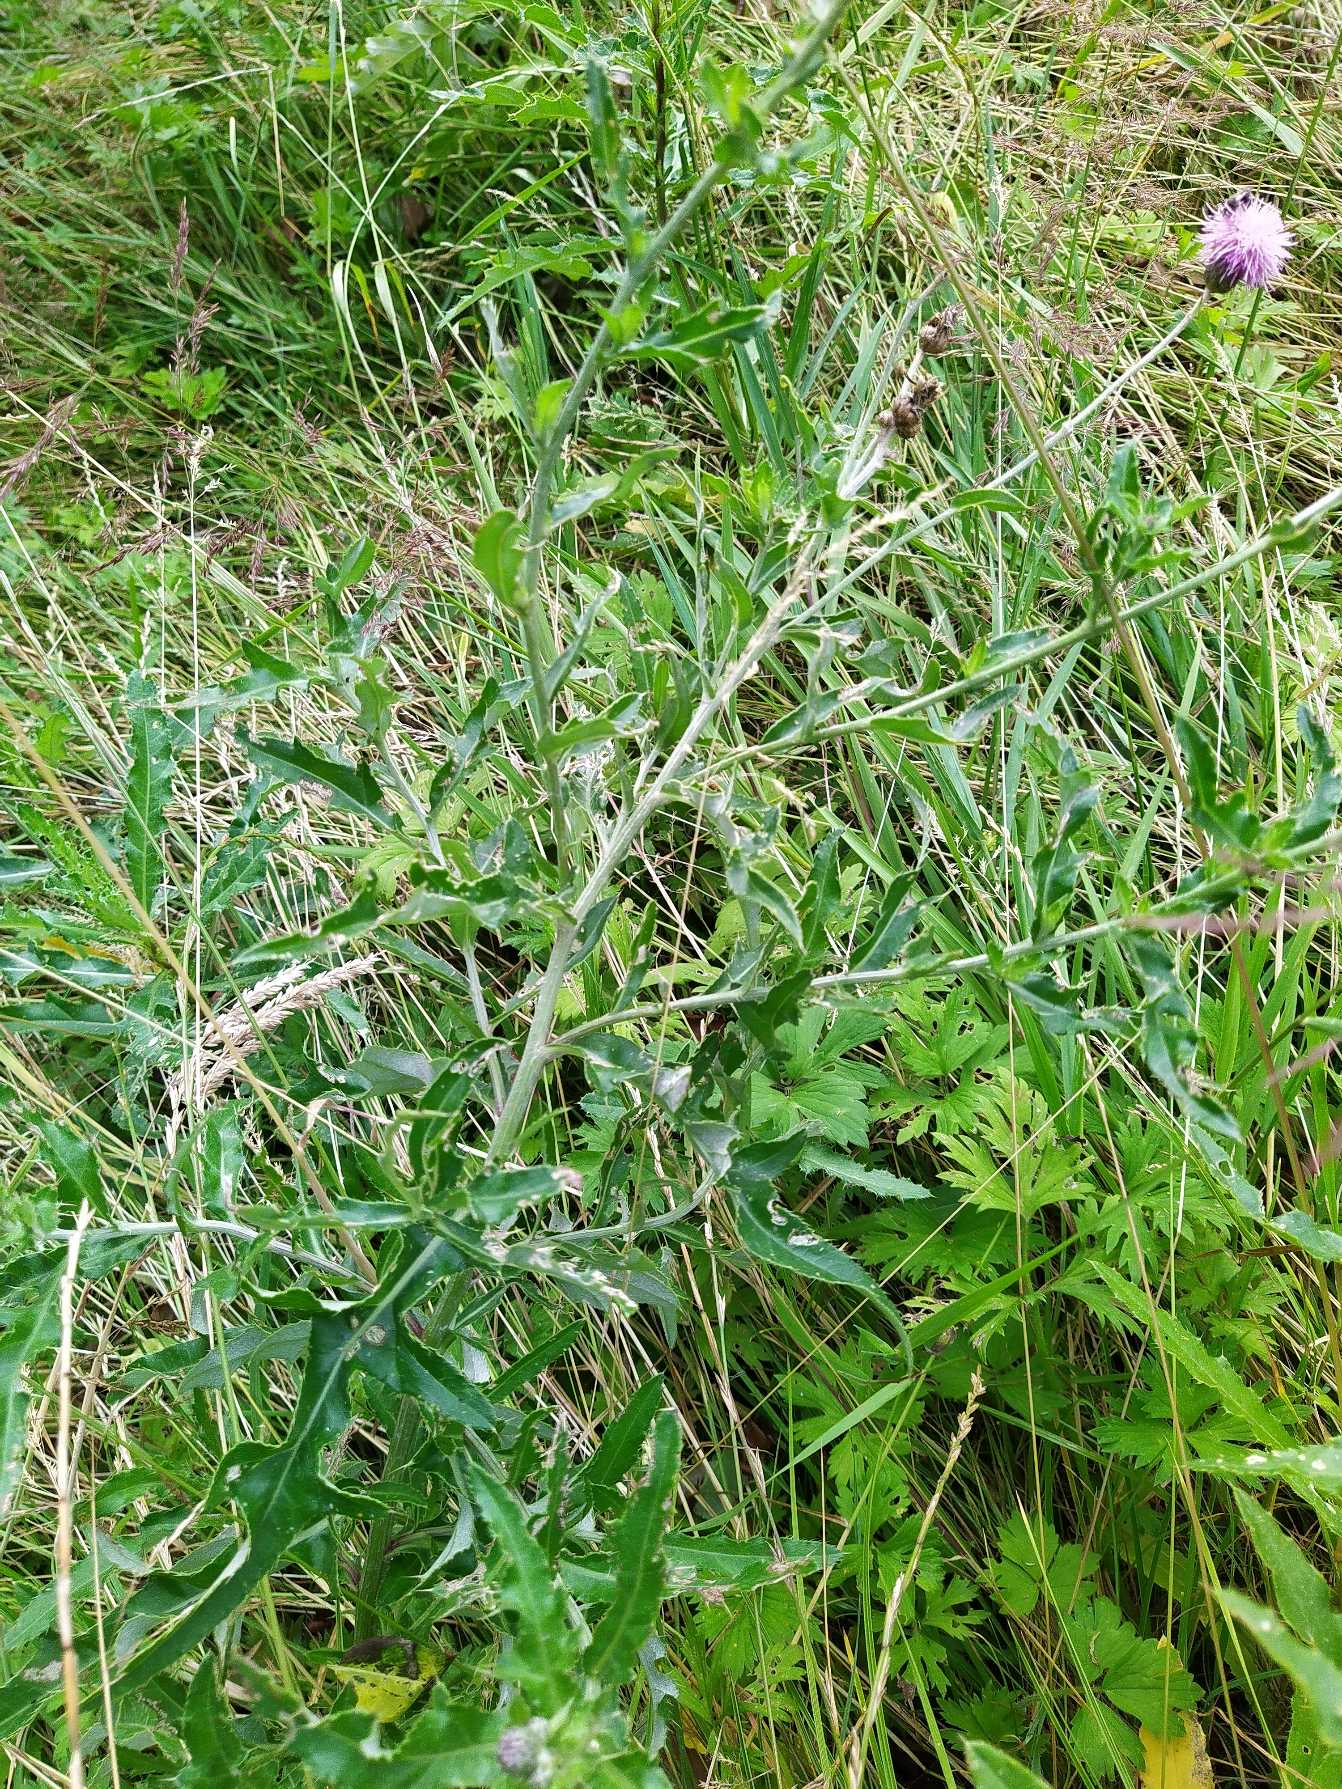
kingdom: Plantae
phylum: Tracheophyta
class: Magnoliopsida
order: Asterales
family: Asteraceae
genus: Cirsium
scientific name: Cirsium arvense
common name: Ager-tidsel
